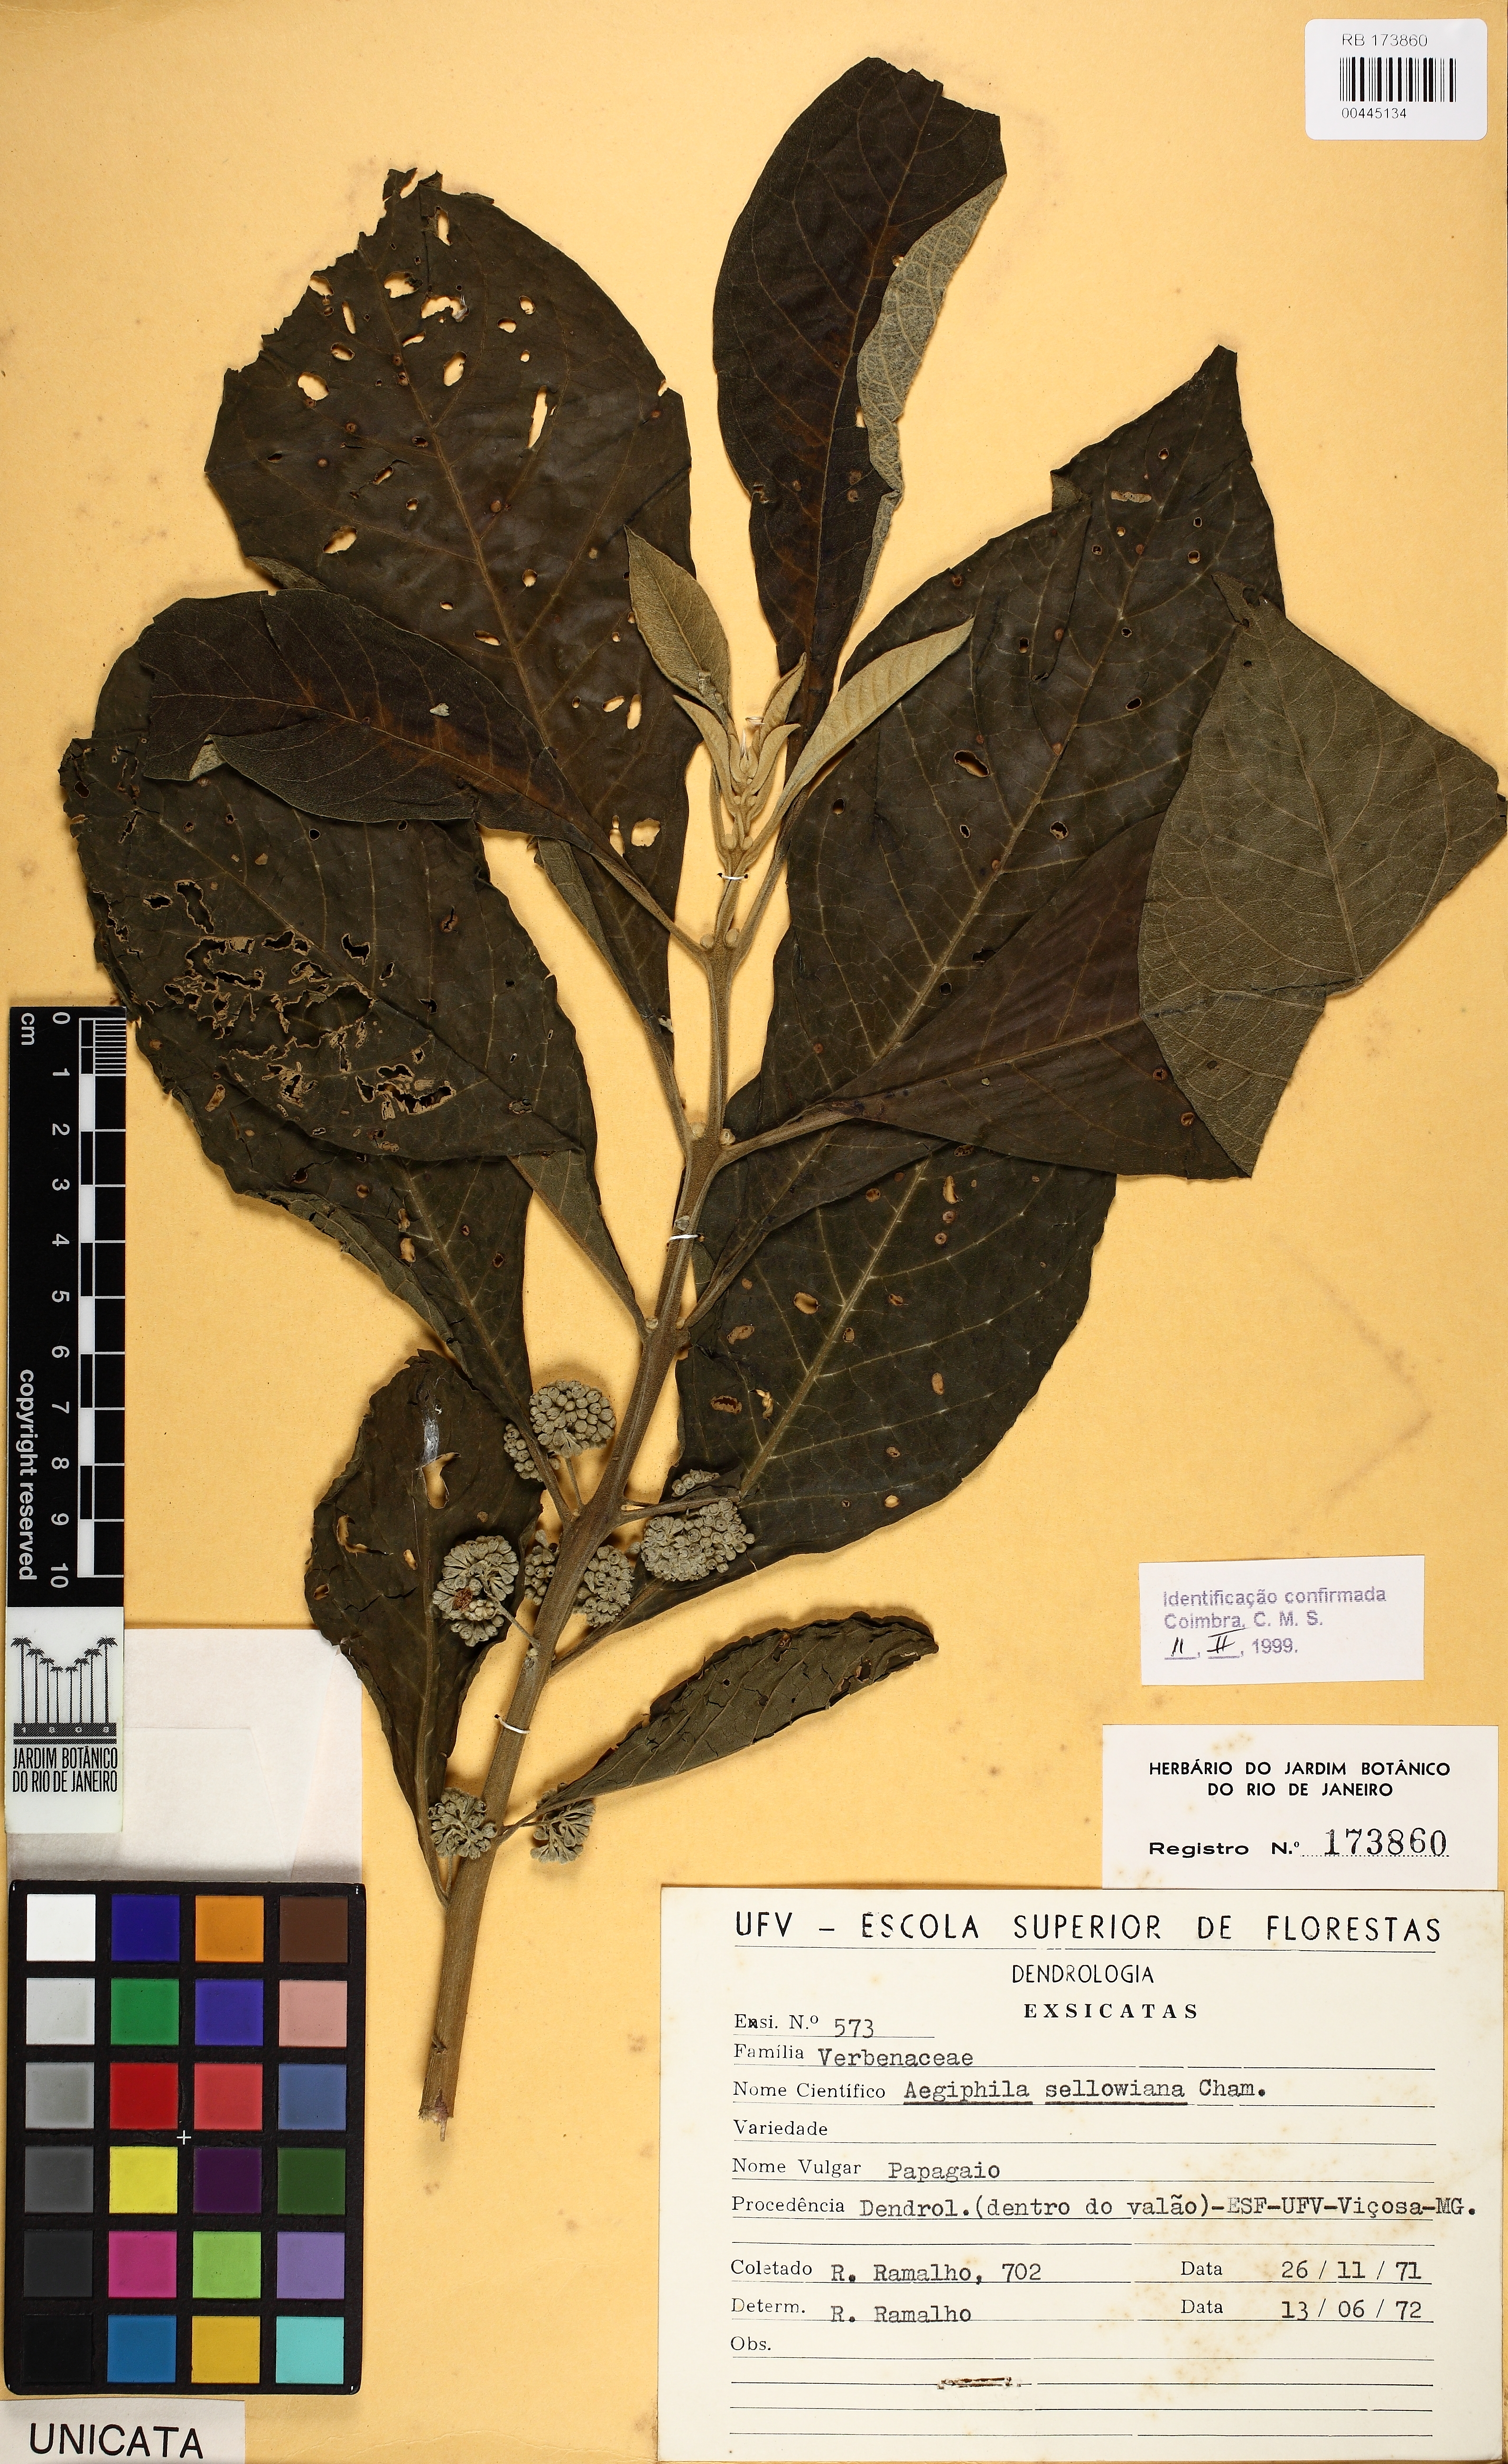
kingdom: Plantae
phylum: Tracheophyta
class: Magnoliopsida
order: Lamiales
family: Lamiaceae
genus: Aegiphila
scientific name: Aegiphila verticillata
